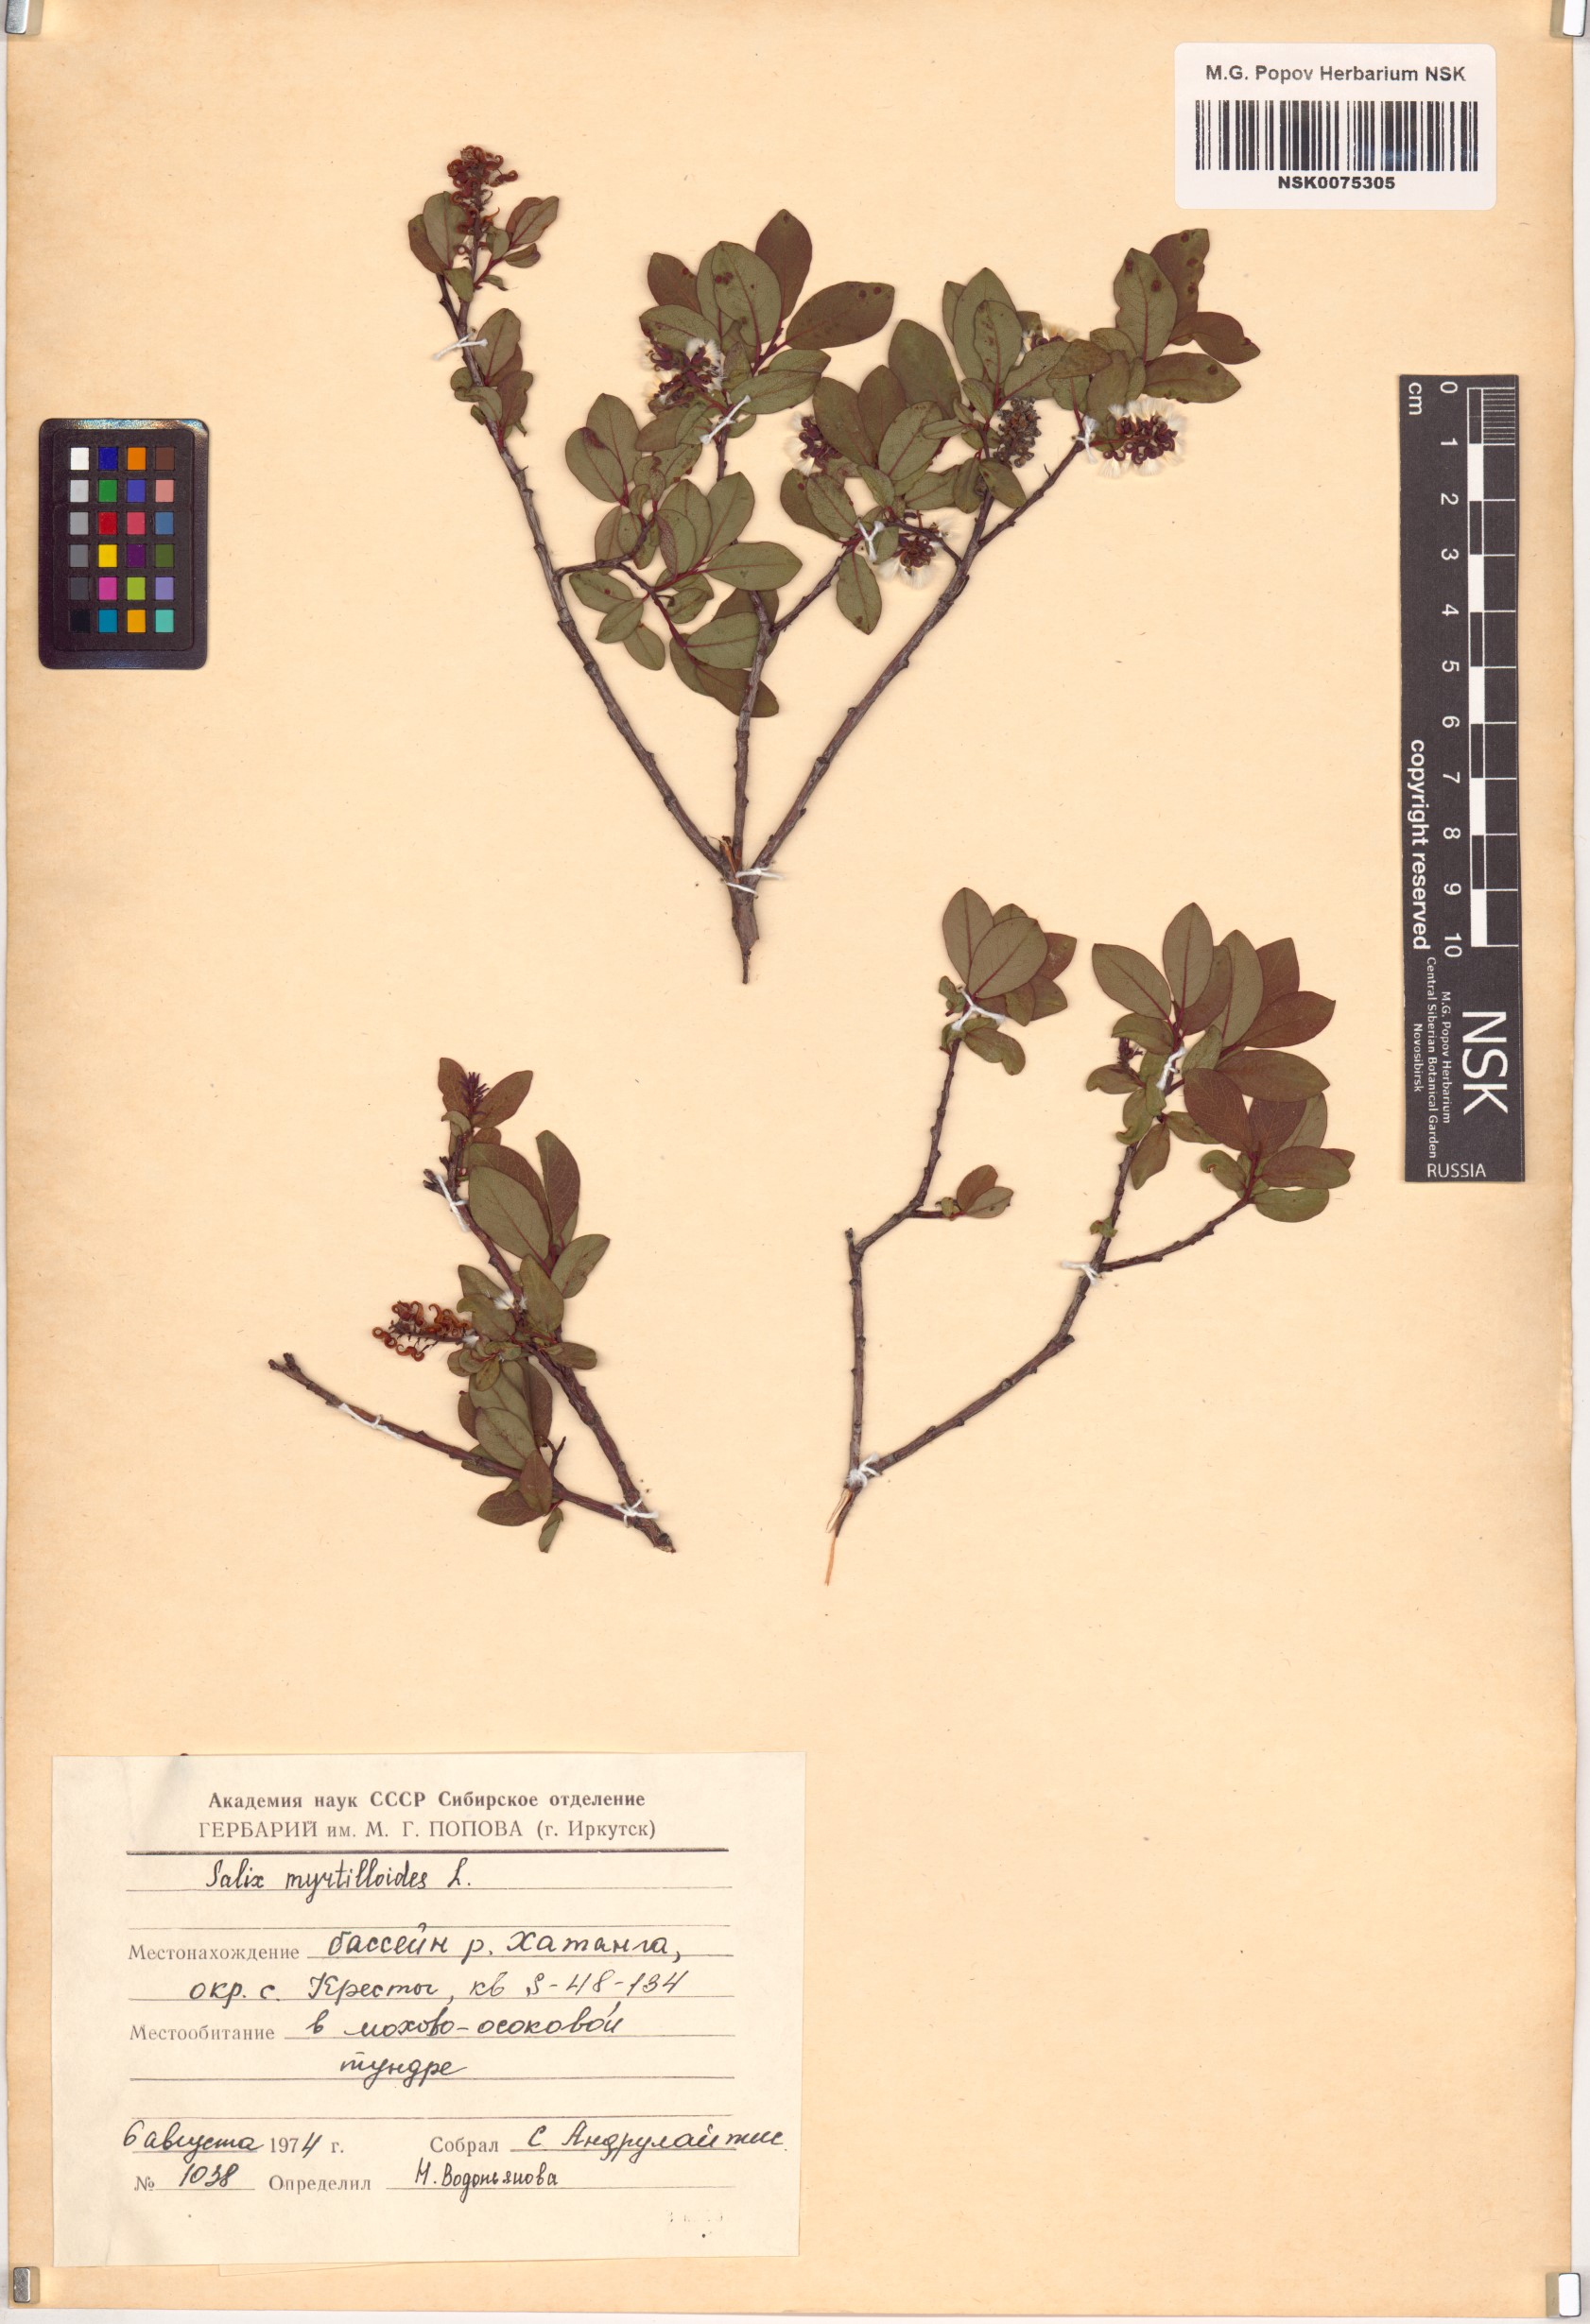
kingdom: Plantae
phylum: Tracheophyta
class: Magnoliopsida
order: Malpighiales
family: Salicaceae
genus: Salix
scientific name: Salix myrtilloides
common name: Myrtle-leaved willow
